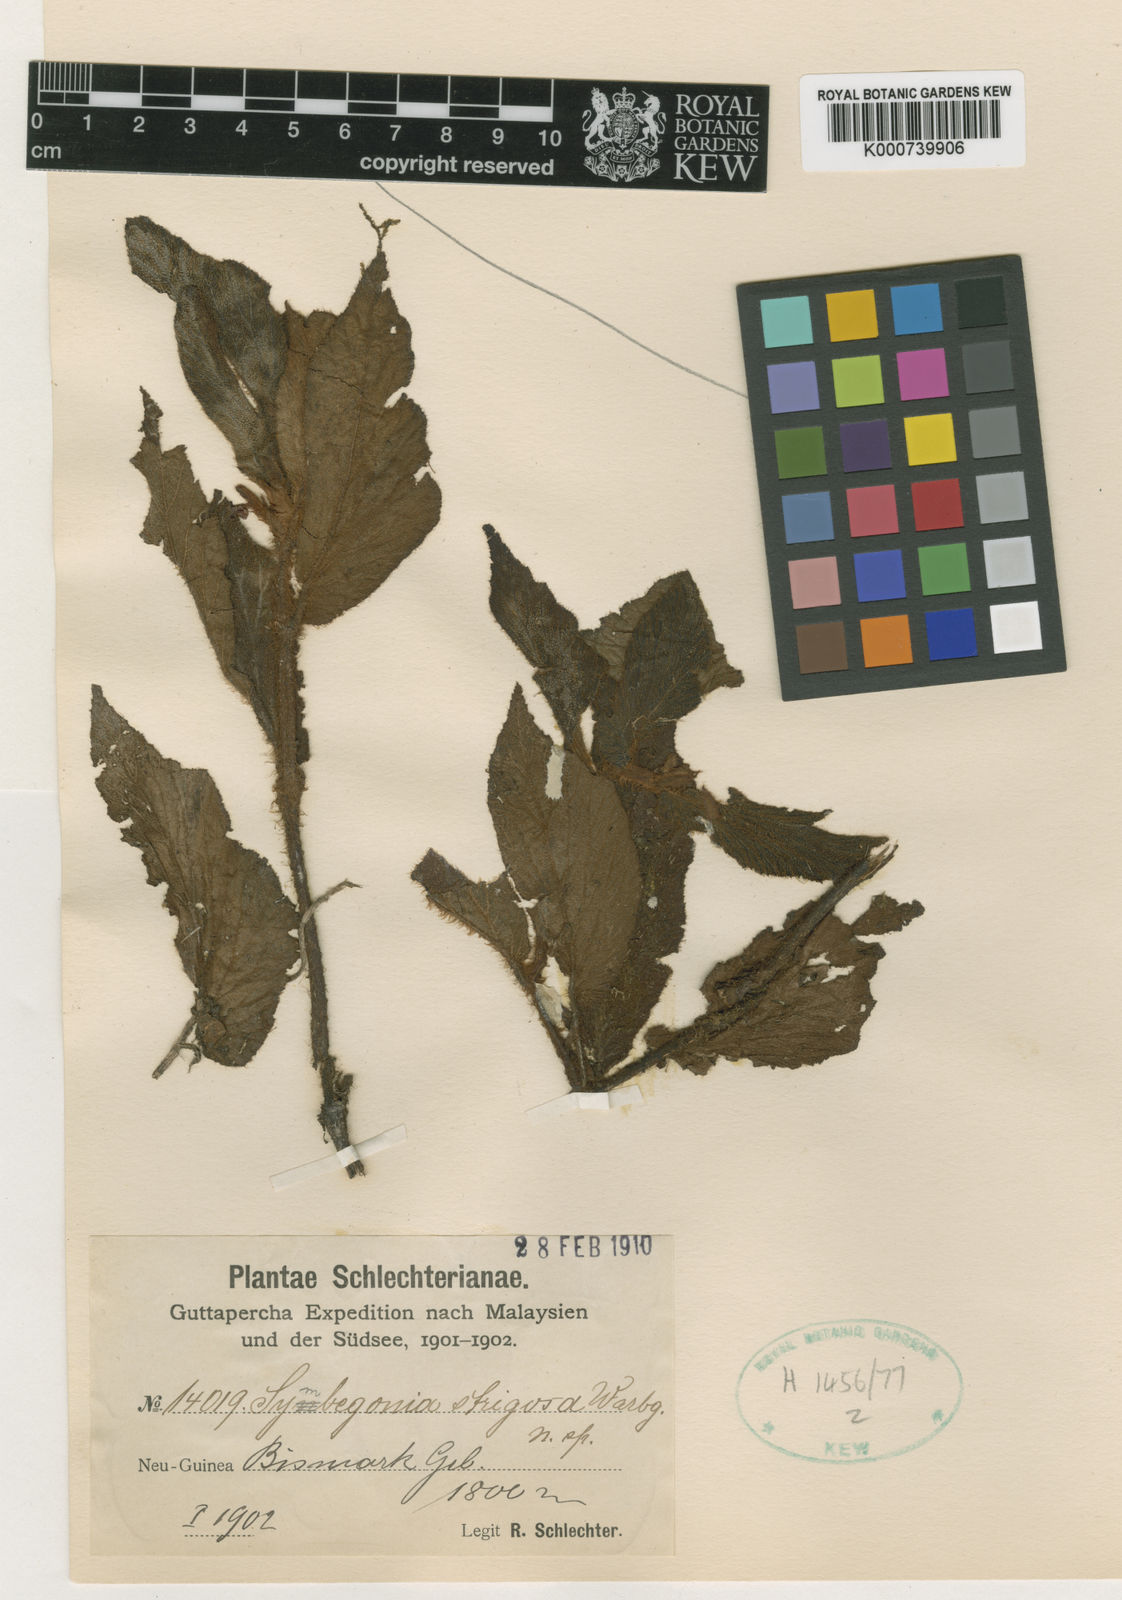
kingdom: Plantae
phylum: Tracheophyta
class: Magnoliopsida
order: Cucurbitales
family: Begoniaceae
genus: Begonia
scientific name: Begonia strigosa
